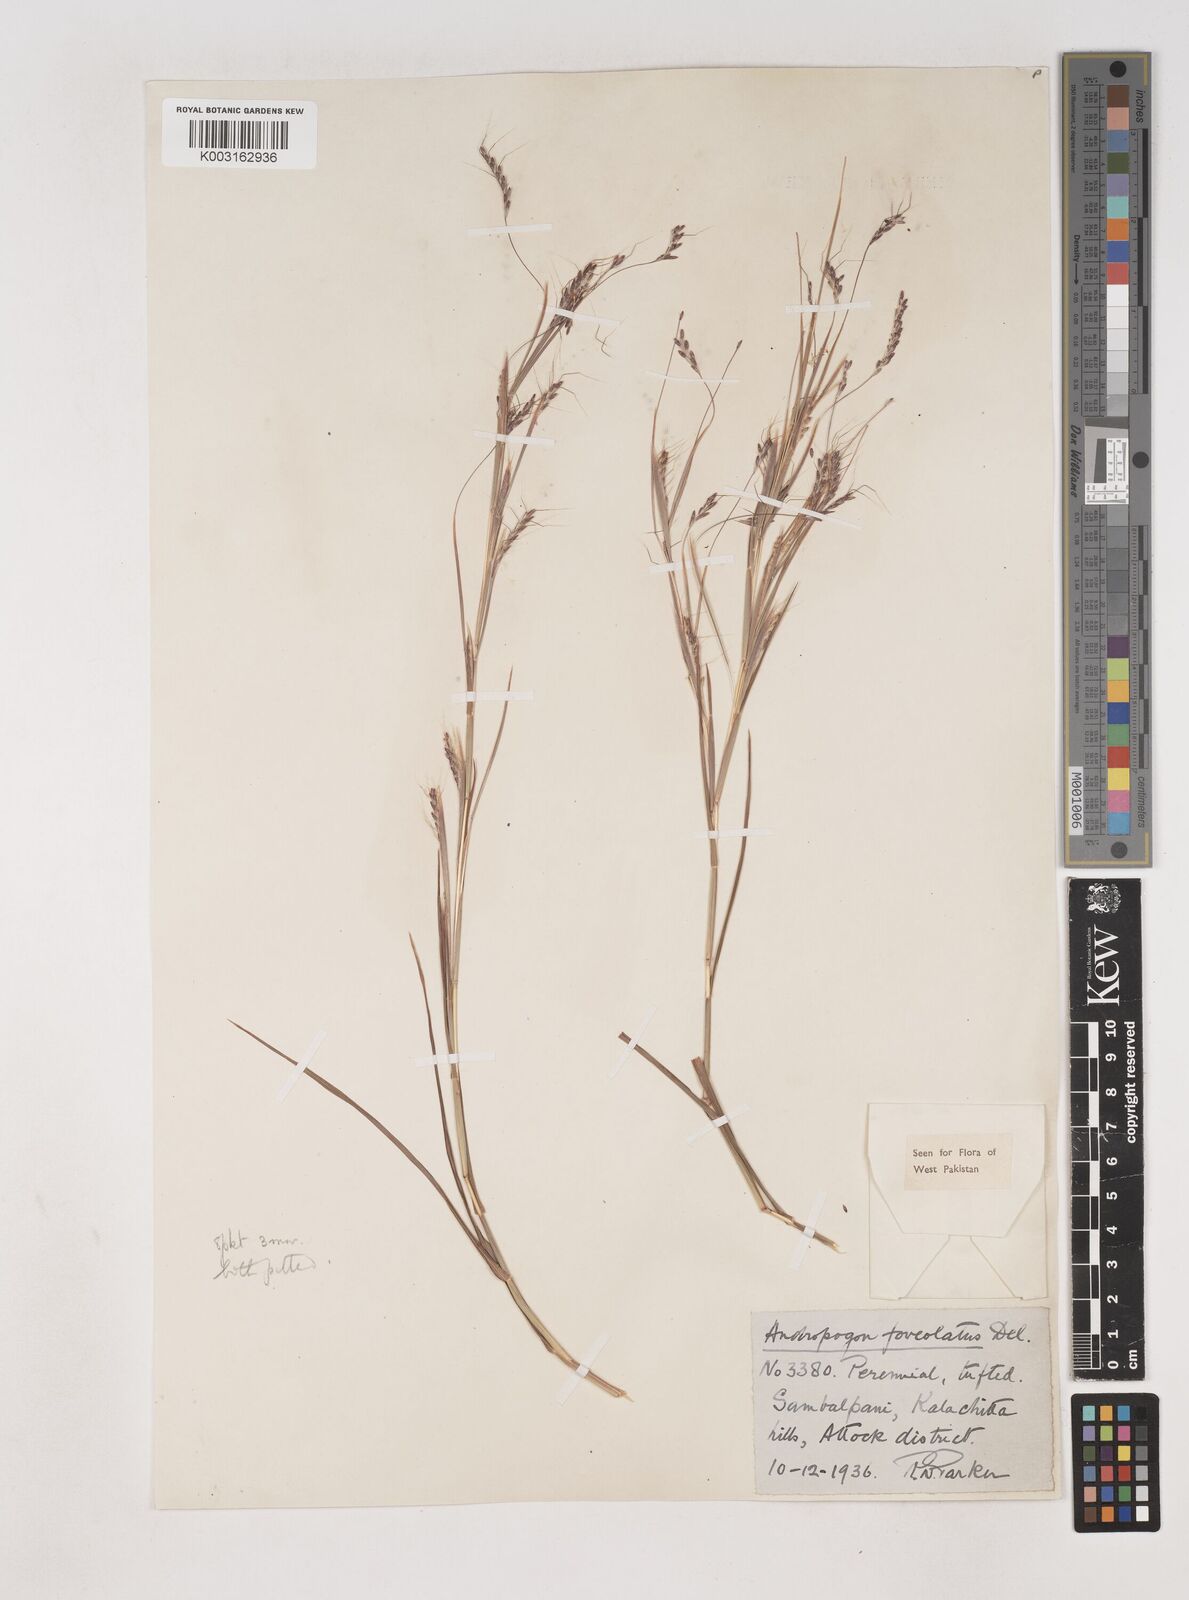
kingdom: Plantae
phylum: Tracheophyta
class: Liliopsida
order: Poales
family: Poaceae
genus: Dichanthium
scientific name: Dichanthium
